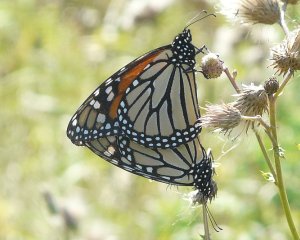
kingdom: Animalia
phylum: Arthropoda
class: Insecta
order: Lepidoptera
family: Nymphalidae
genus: Danaus
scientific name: Danaus plexippus
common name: Monarch
